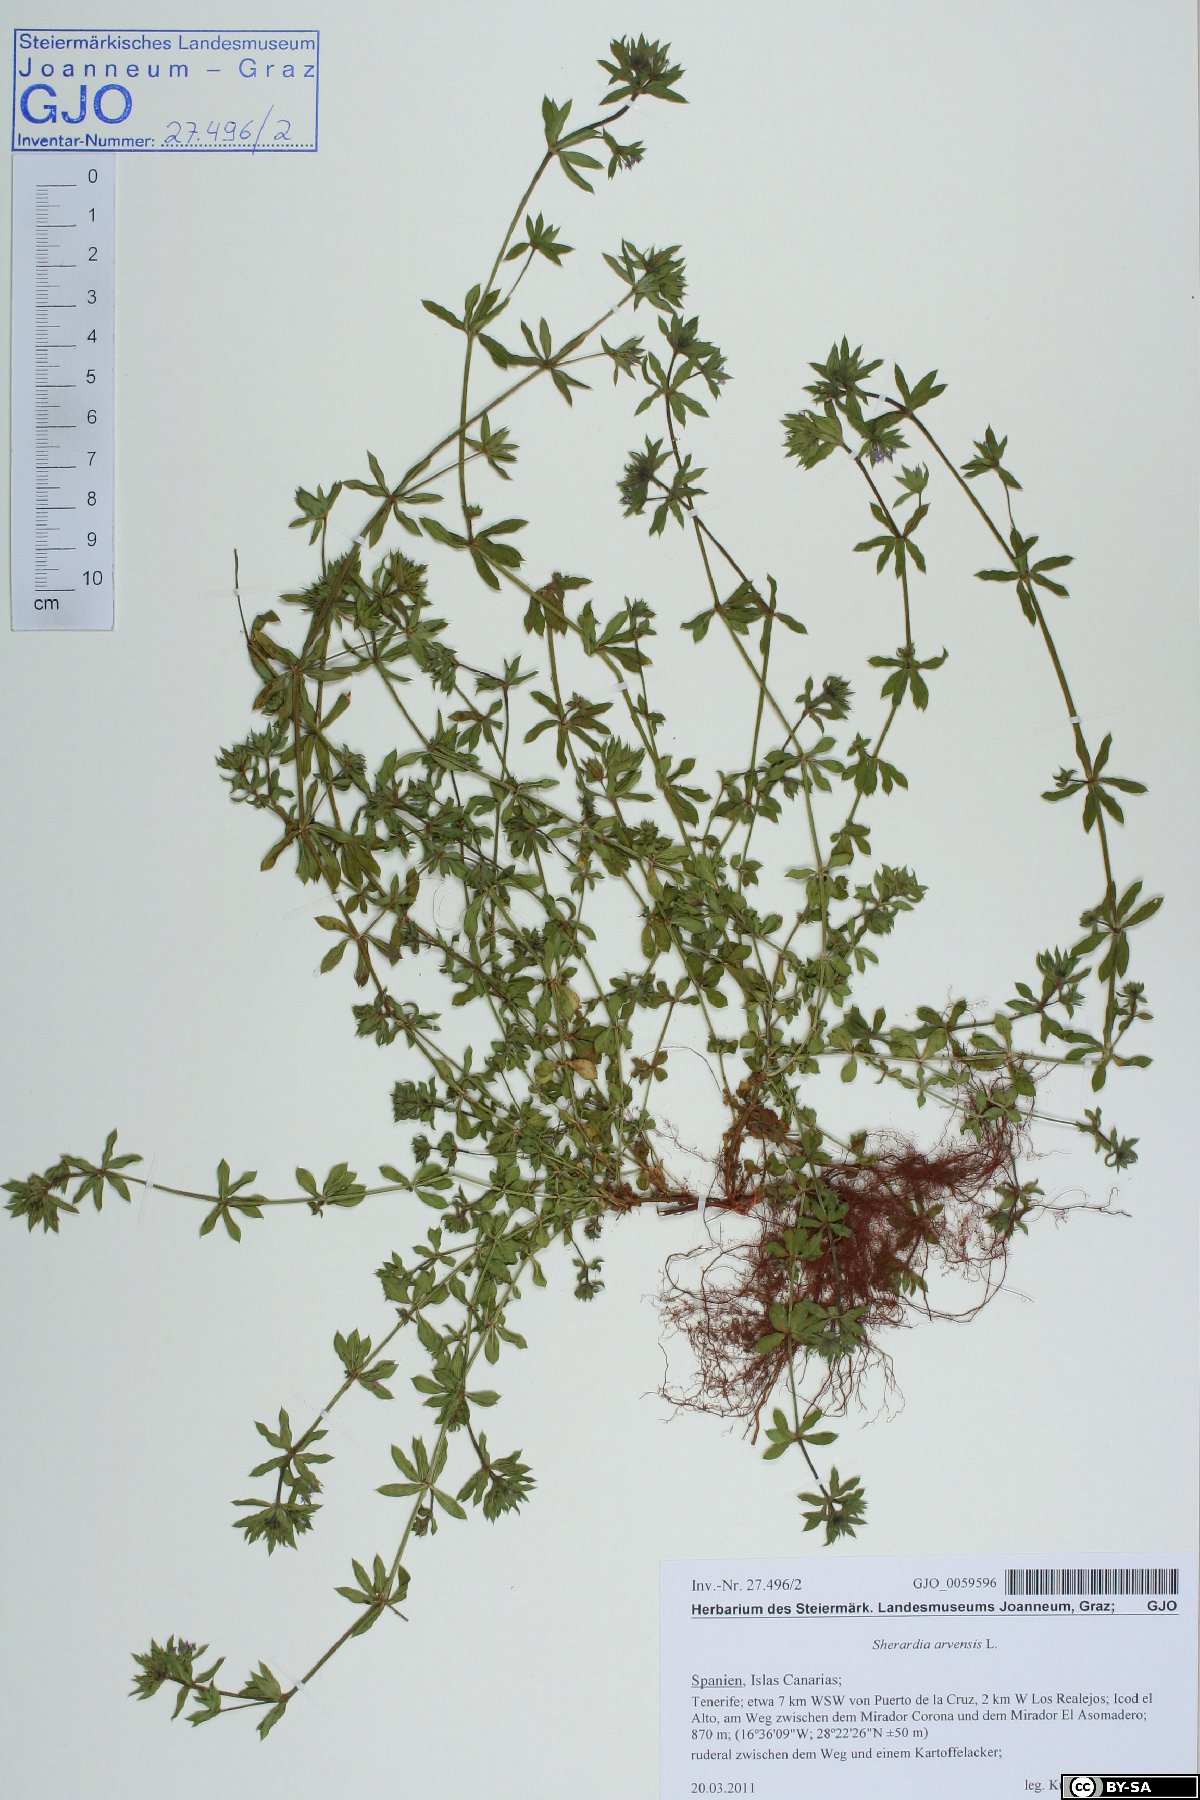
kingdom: Plantae
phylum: Tracheophyta
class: Magnoliopsida
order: Gentianales
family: Rubiaceae
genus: Sherardia
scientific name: Sherardia arvensis
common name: Field madder
